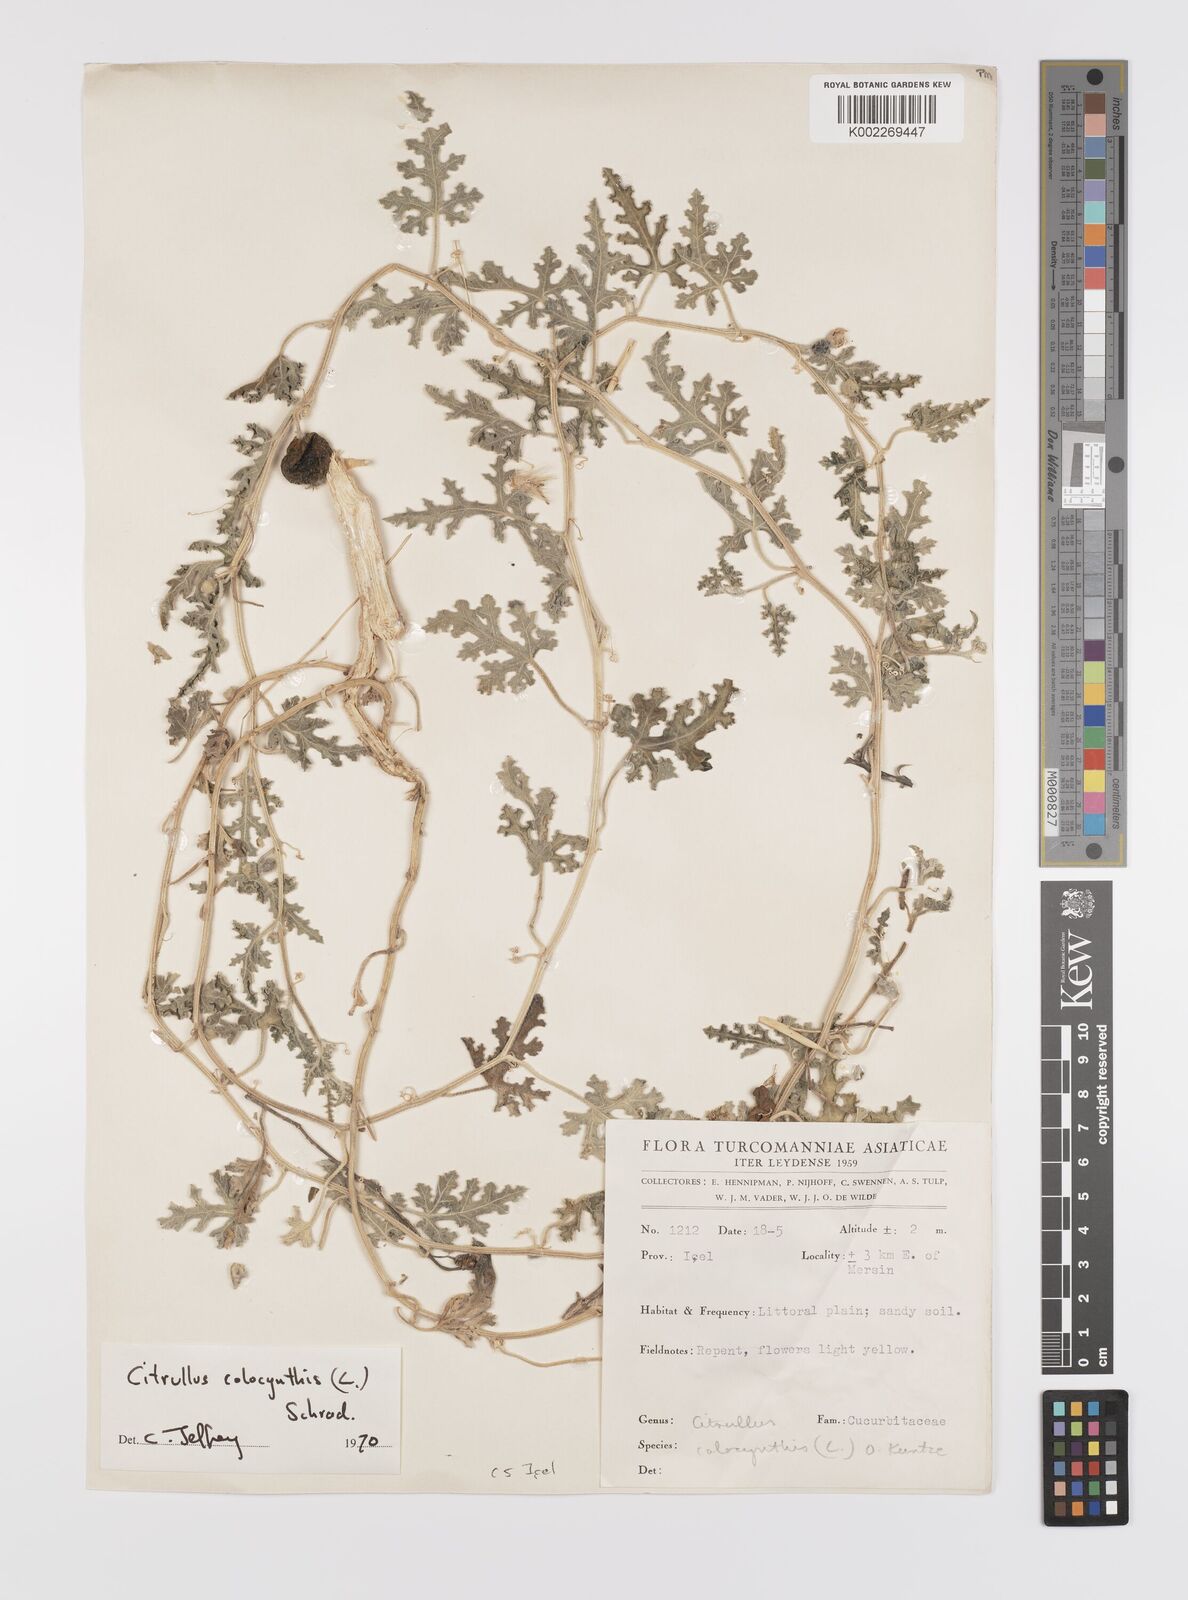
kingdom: Plantae
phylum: Tracheophyta
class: Magnoliopsida
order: Cucurbitales
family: Cucurbitaceae
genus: Citrullus
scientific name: Citrullus colocynthis
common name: Colocynth
